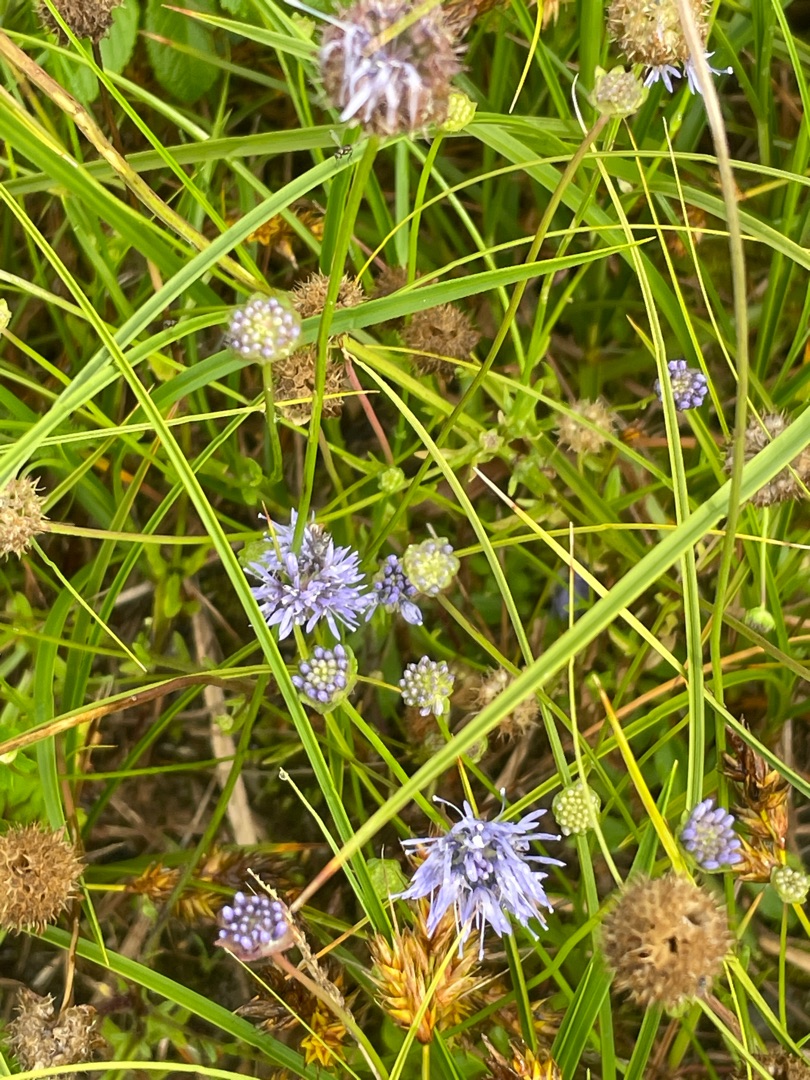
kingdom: Plantae
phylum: Tracheophyta
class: Magnoliopsida
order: Asterales
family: Campanulaceae
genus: Jasione
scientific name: Jasione montana
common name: Blåmunke
